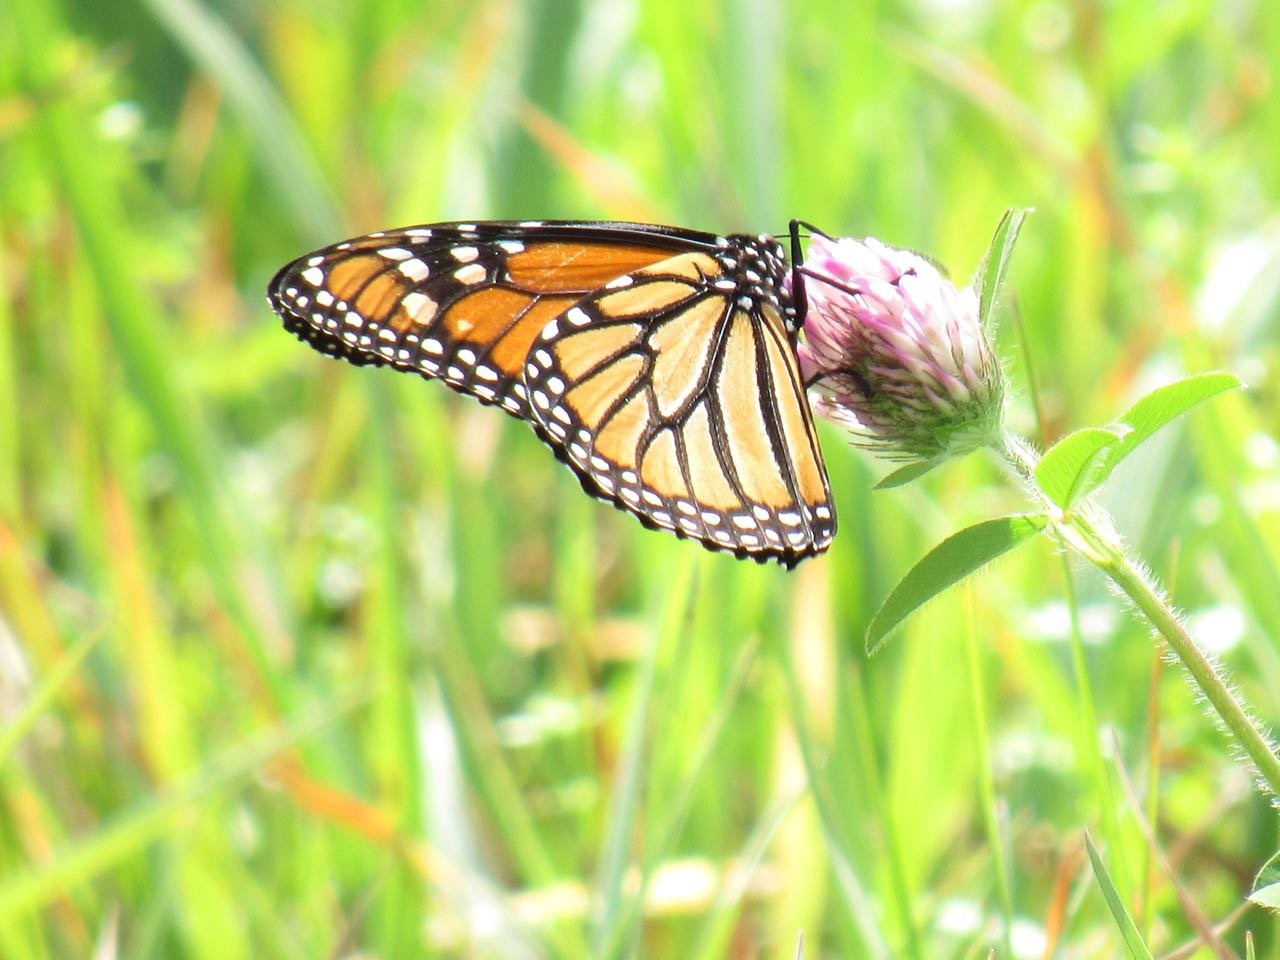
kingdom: Animalia
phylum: Arthropoda
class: Insecta
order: Lepidoptera
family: Nymphalidae
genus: Danaus
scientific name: Danaus plexippus
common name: Monarch
